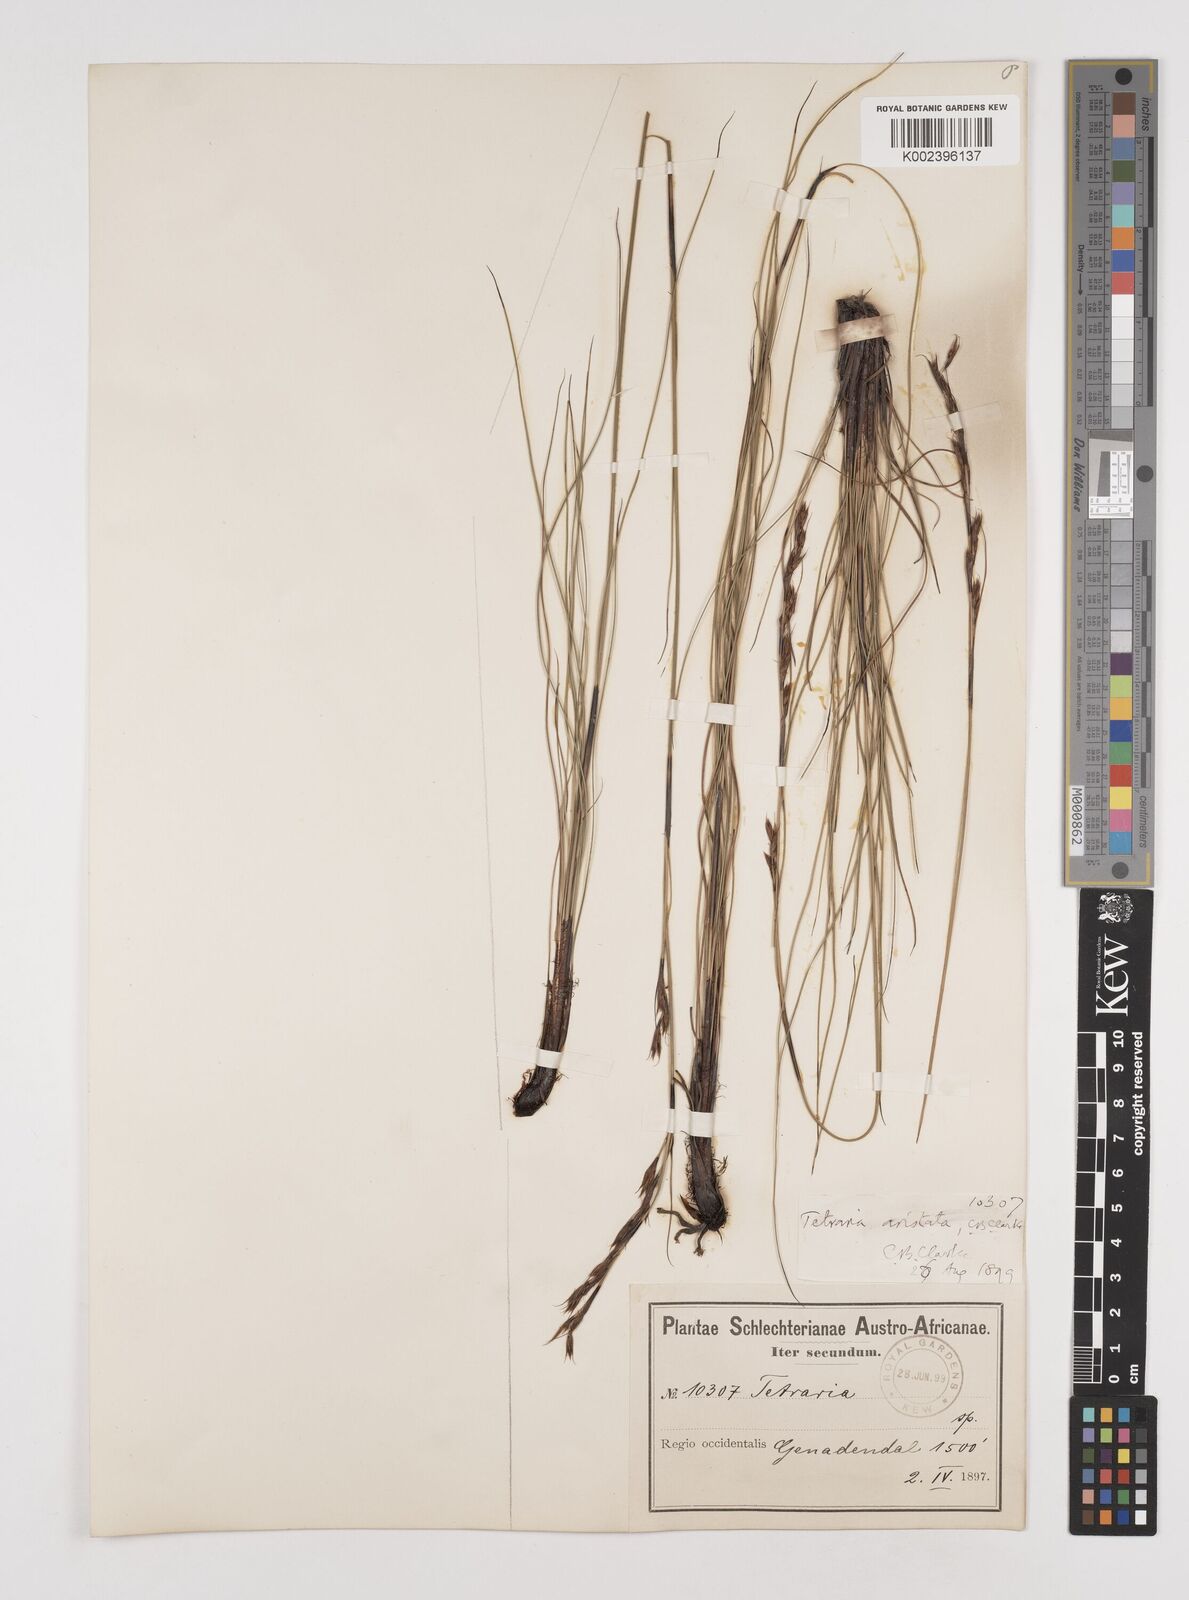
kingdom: Plantae
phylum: Tracheophyta
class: Liliopsida
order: Poales
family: Cyperaceae
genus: Tetraria
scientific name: Tetraria flexuosa
